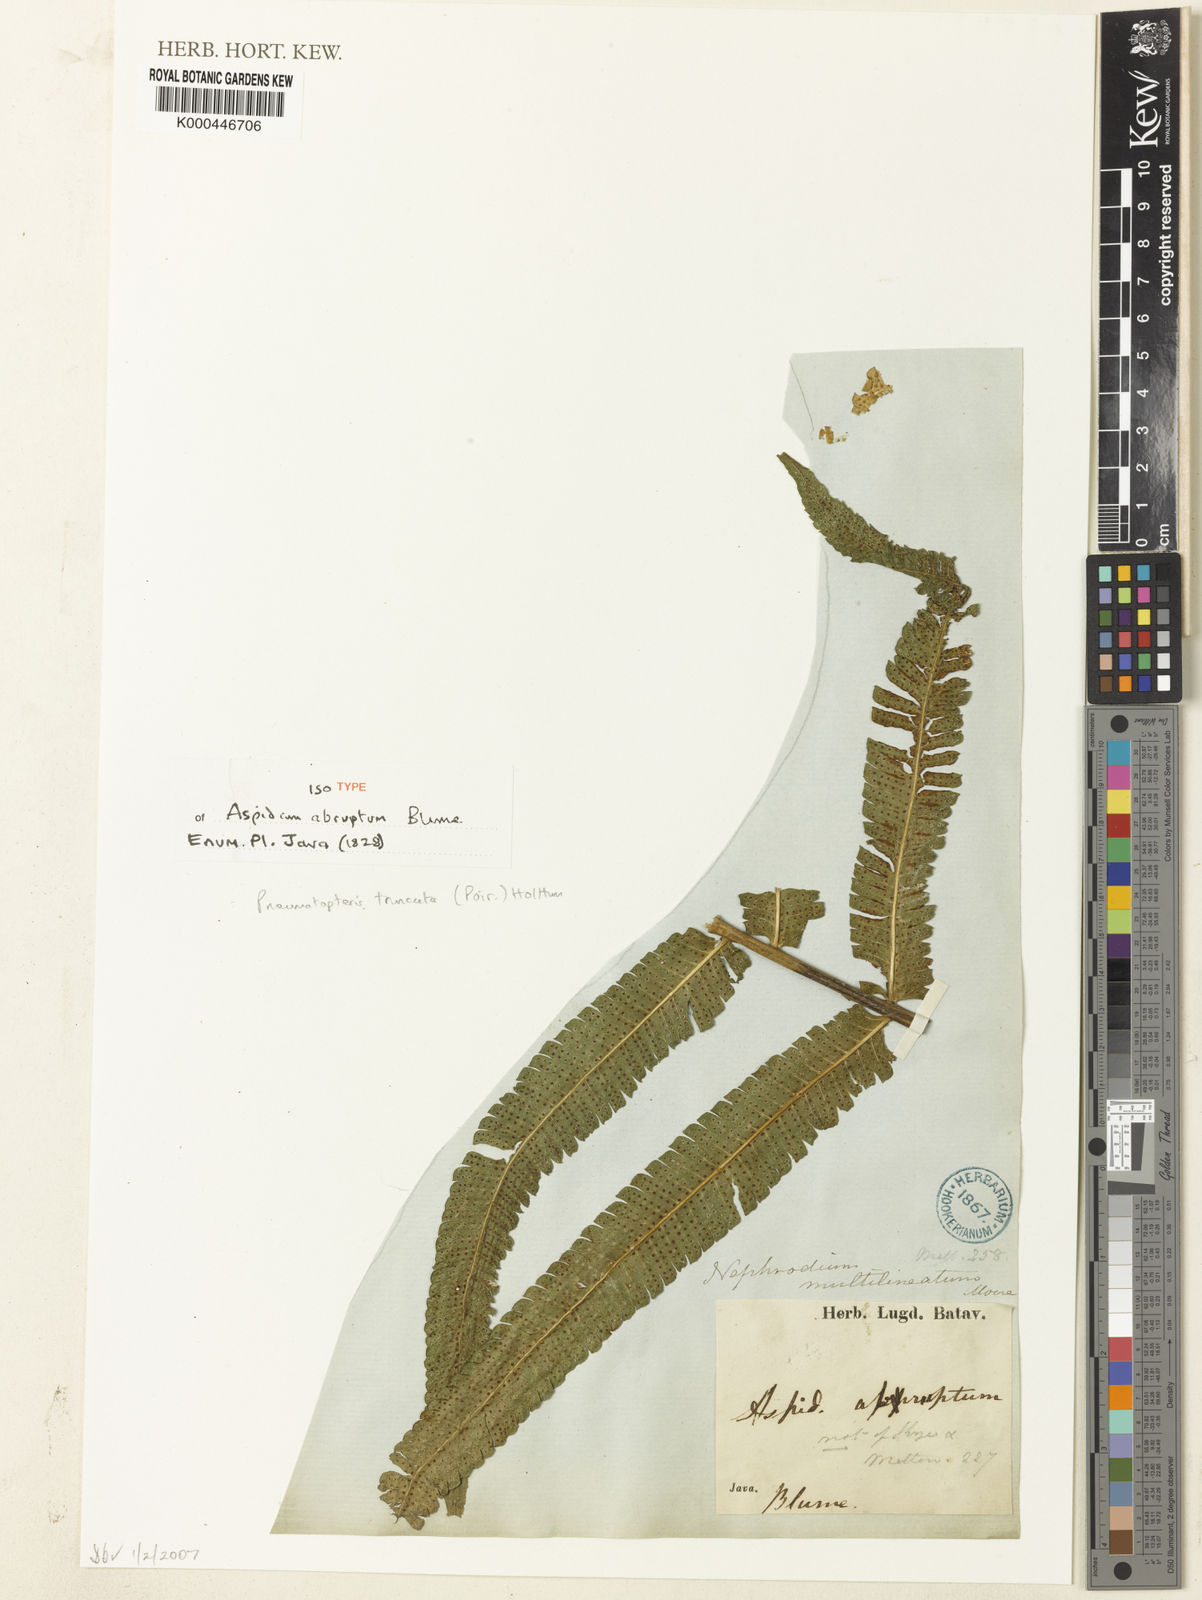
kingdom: Plantae
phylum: Tracheophyta
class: Polypodiopsida
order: Polypodiales
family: Thelypteridaceae
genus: Reholttumia
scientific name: Reholttumia truncata
